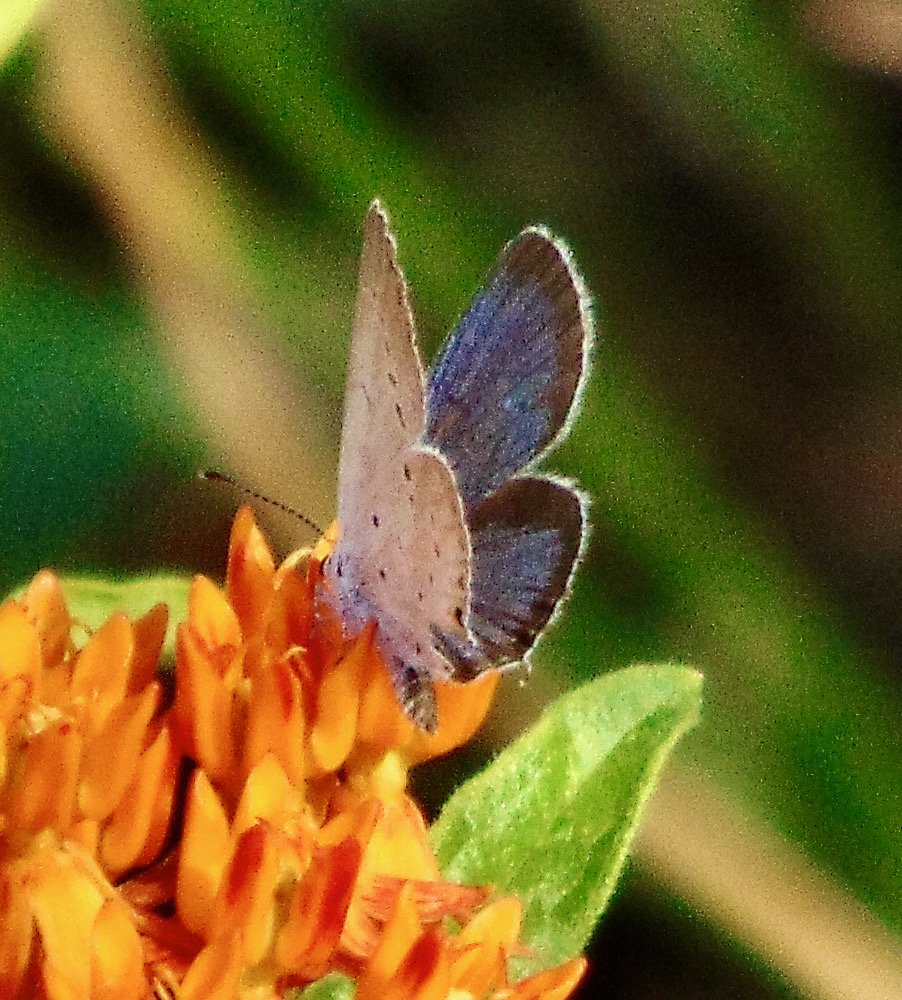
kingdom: Animalia
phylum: Arthropoda
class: Insecta
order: Lepidoptera
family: Lycaenidae
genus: Elkalyce
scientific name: Elkalyce comyntas
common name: Eastern Tailed-Blue
